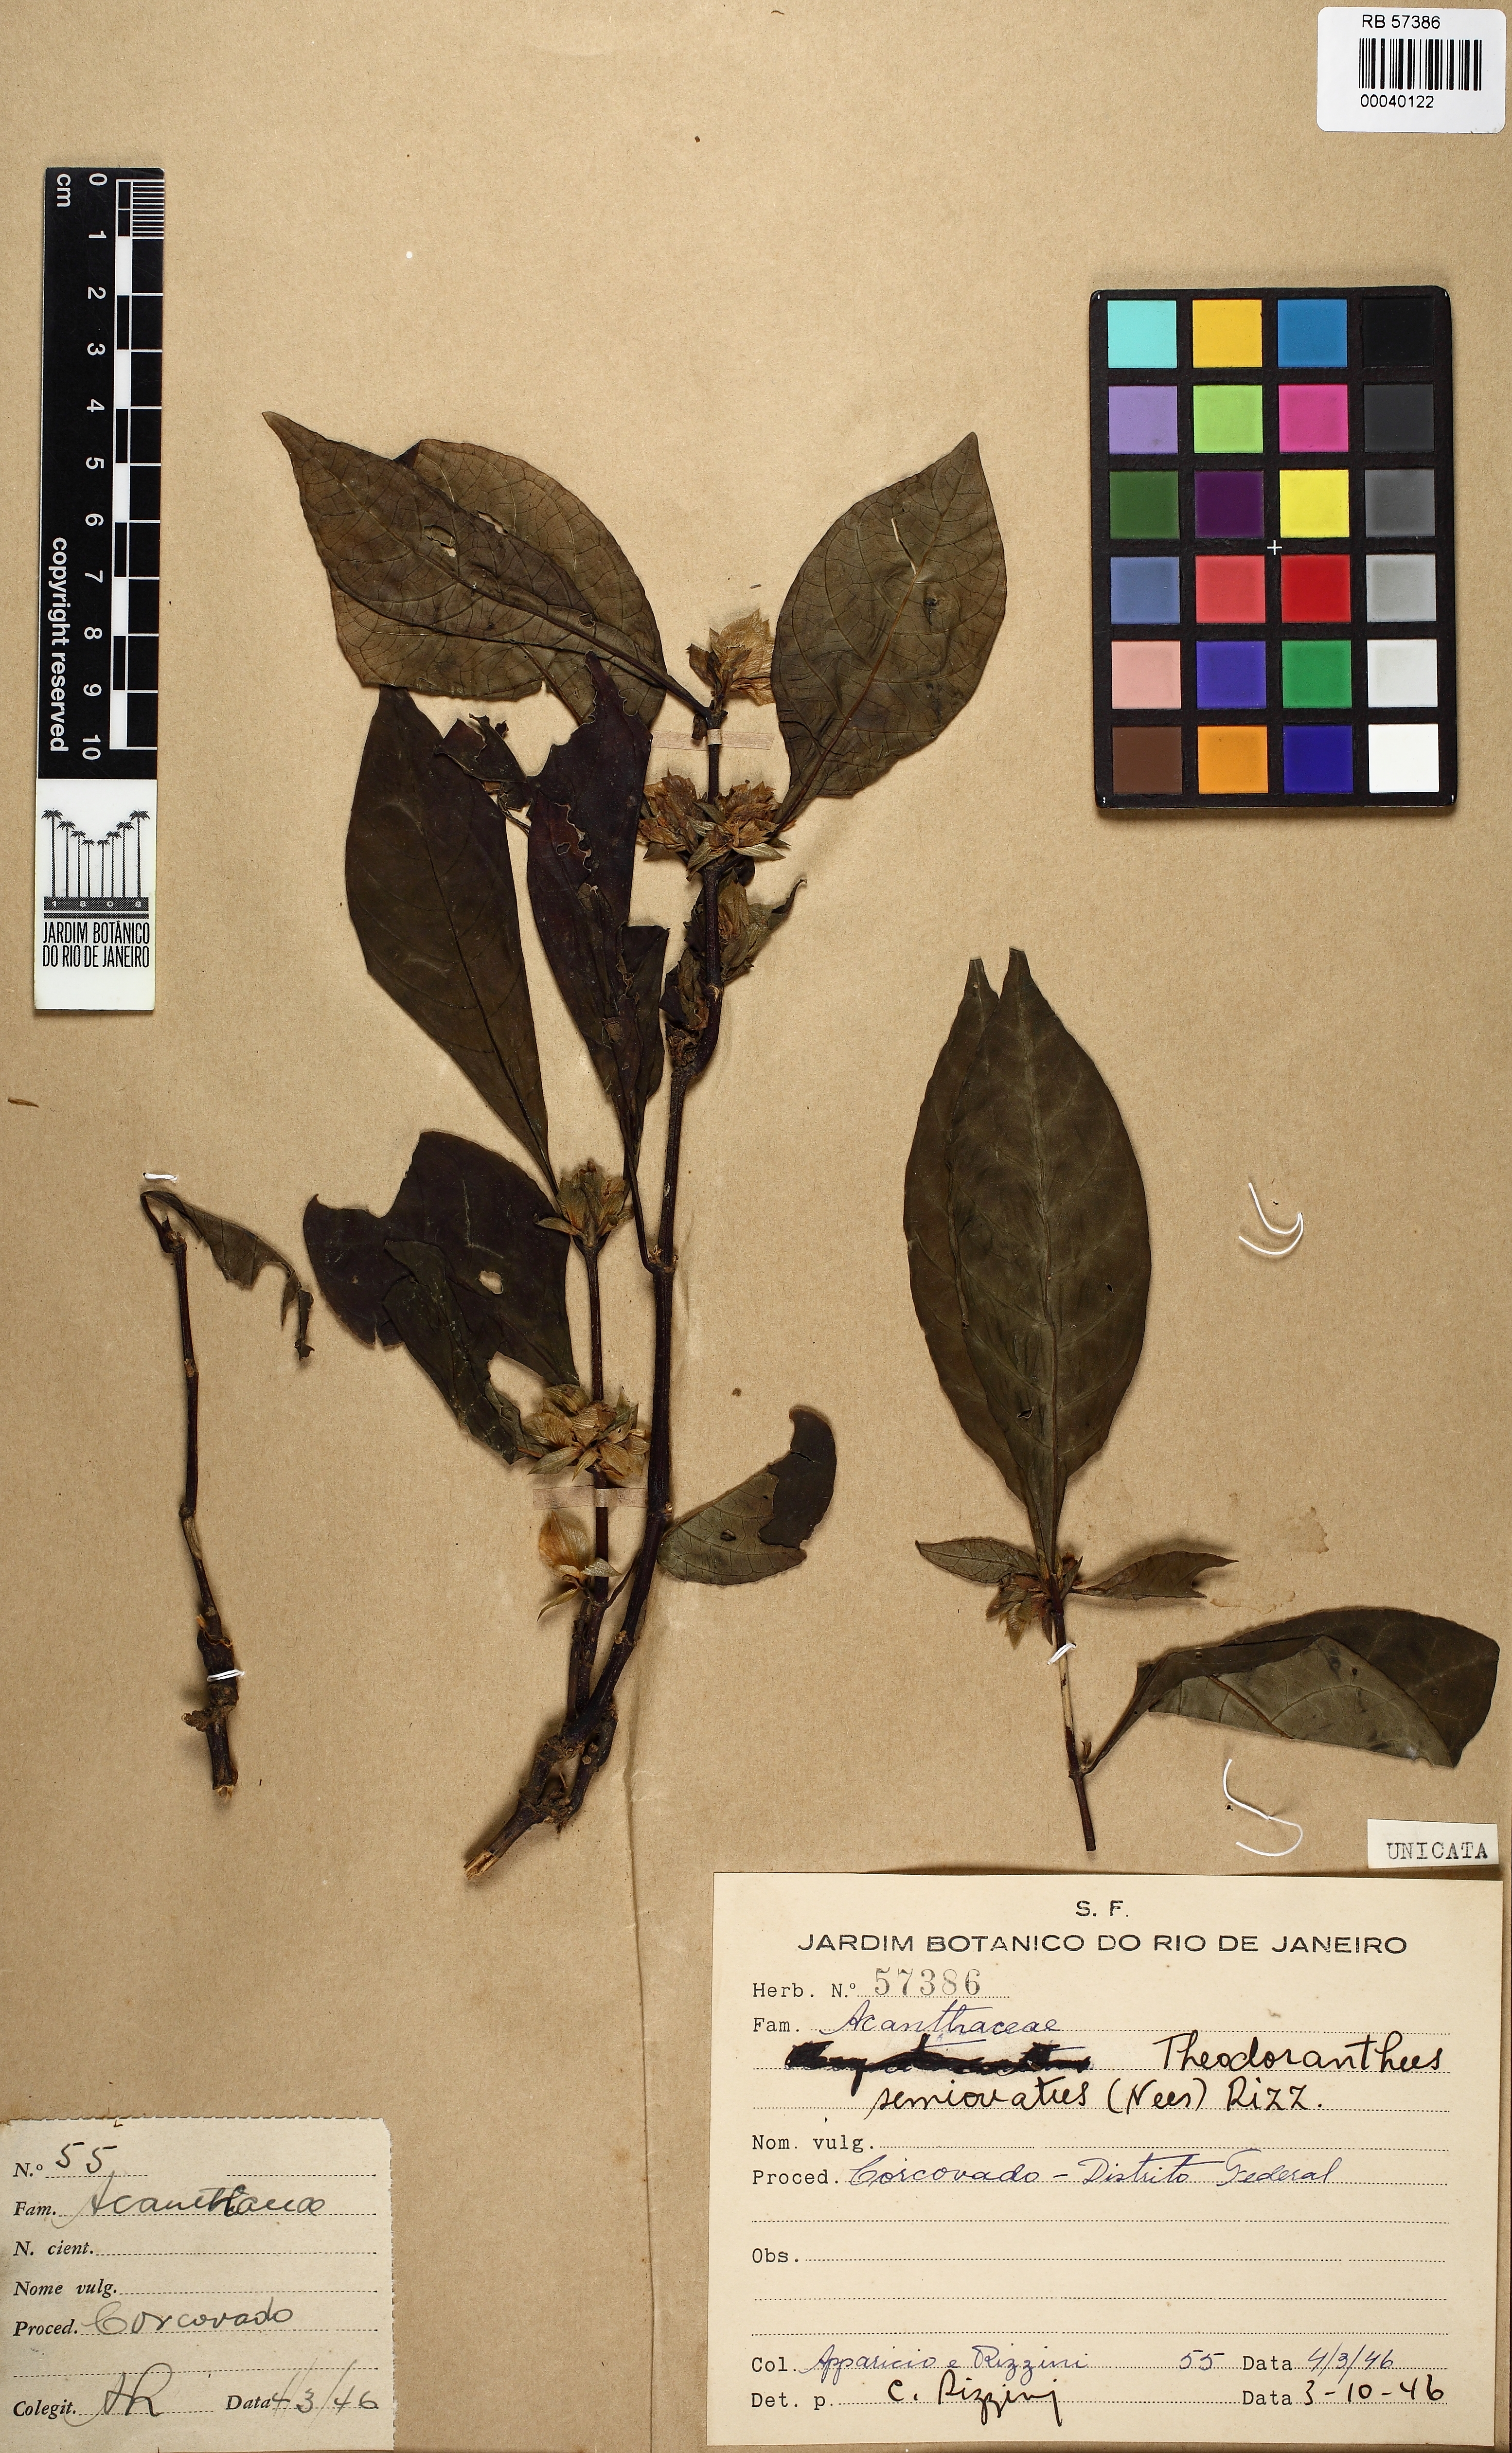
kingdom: Plantae
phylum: Tracheophyta
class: Magnoliopsida
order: Lamiales
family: Acanthaceae
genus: Lepidagathis
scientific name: Lepidagathis
